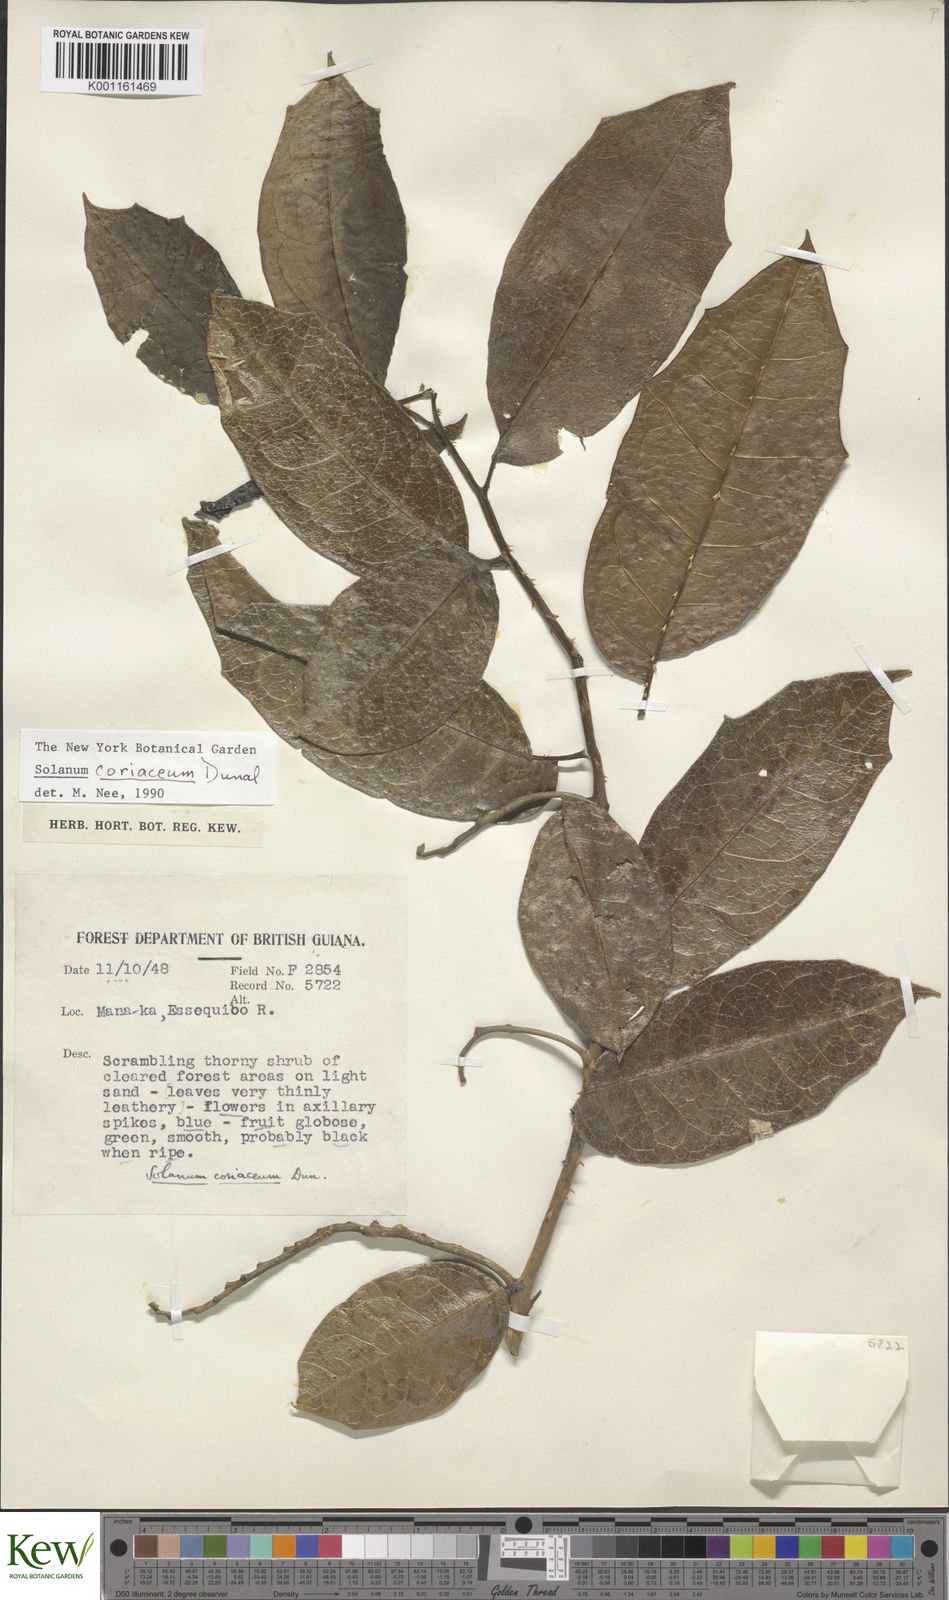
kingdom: Plantae
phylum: Tracheophyta
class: Magnoliopsida
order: Solanales
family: Solanaceae
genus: Solanum
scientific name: Solanum coriaceum
